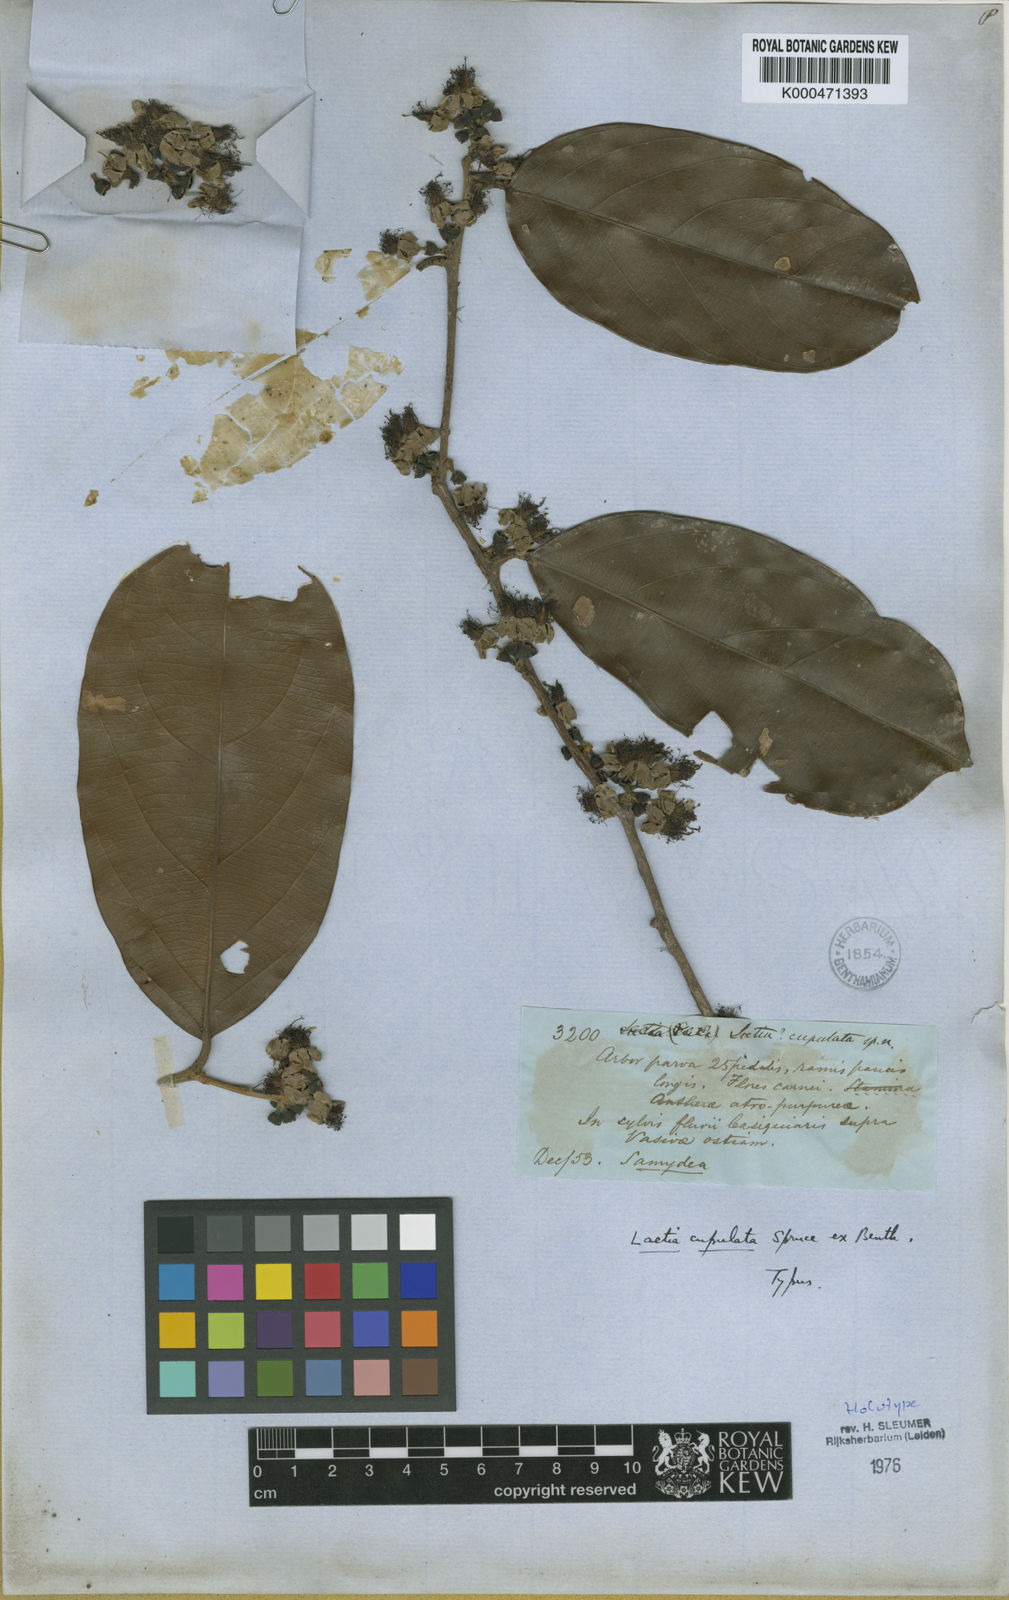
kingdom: Plantae
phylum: Tracheophyta
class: Magnoliopsida
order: Malpighiales
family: Salicaceae
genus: Irenodendron
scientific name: Irenodendron cupulatum
